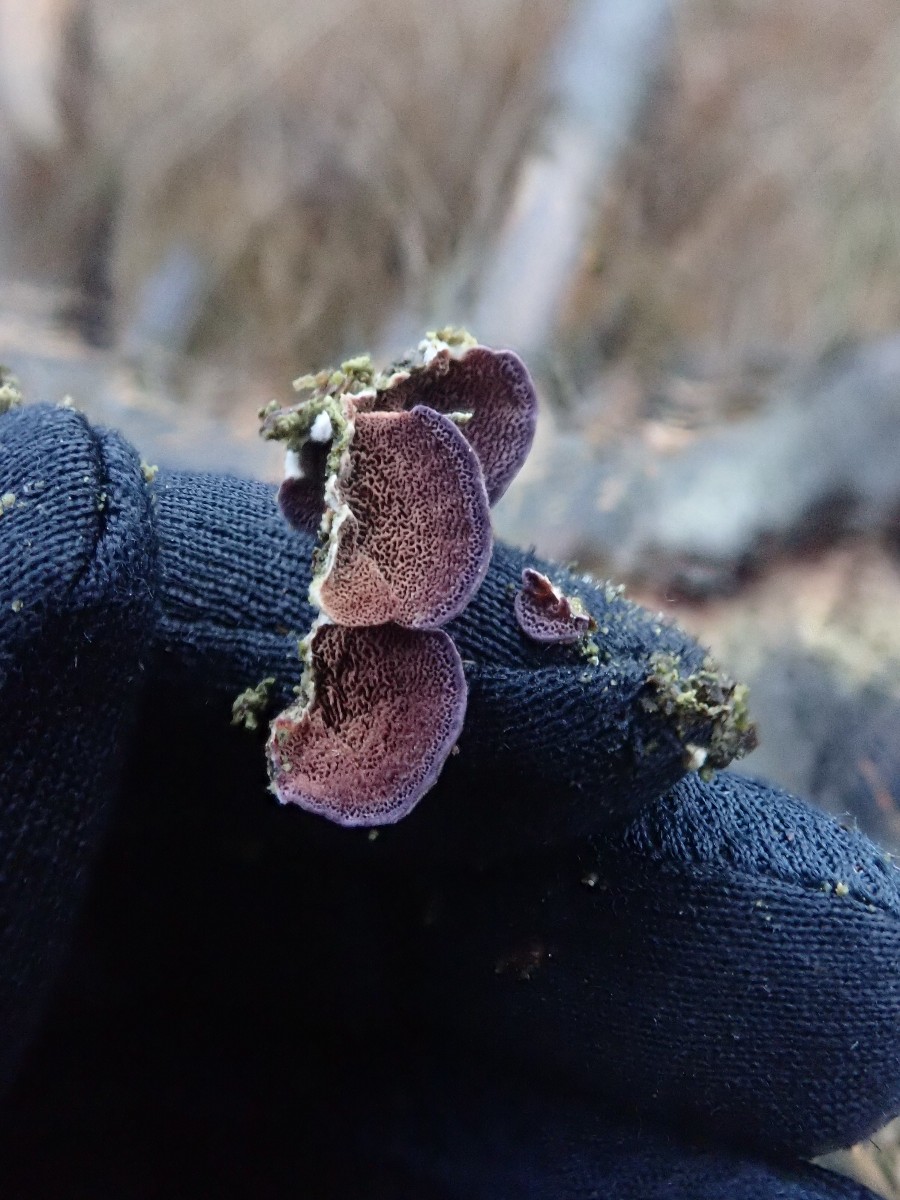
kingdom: Fungi
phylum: Basidiomycota
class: Agaricomycetes
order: Hymenochaetales
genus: Trichaptum
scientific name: Trichaptum abietinum
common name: almindelig violporesvamp
